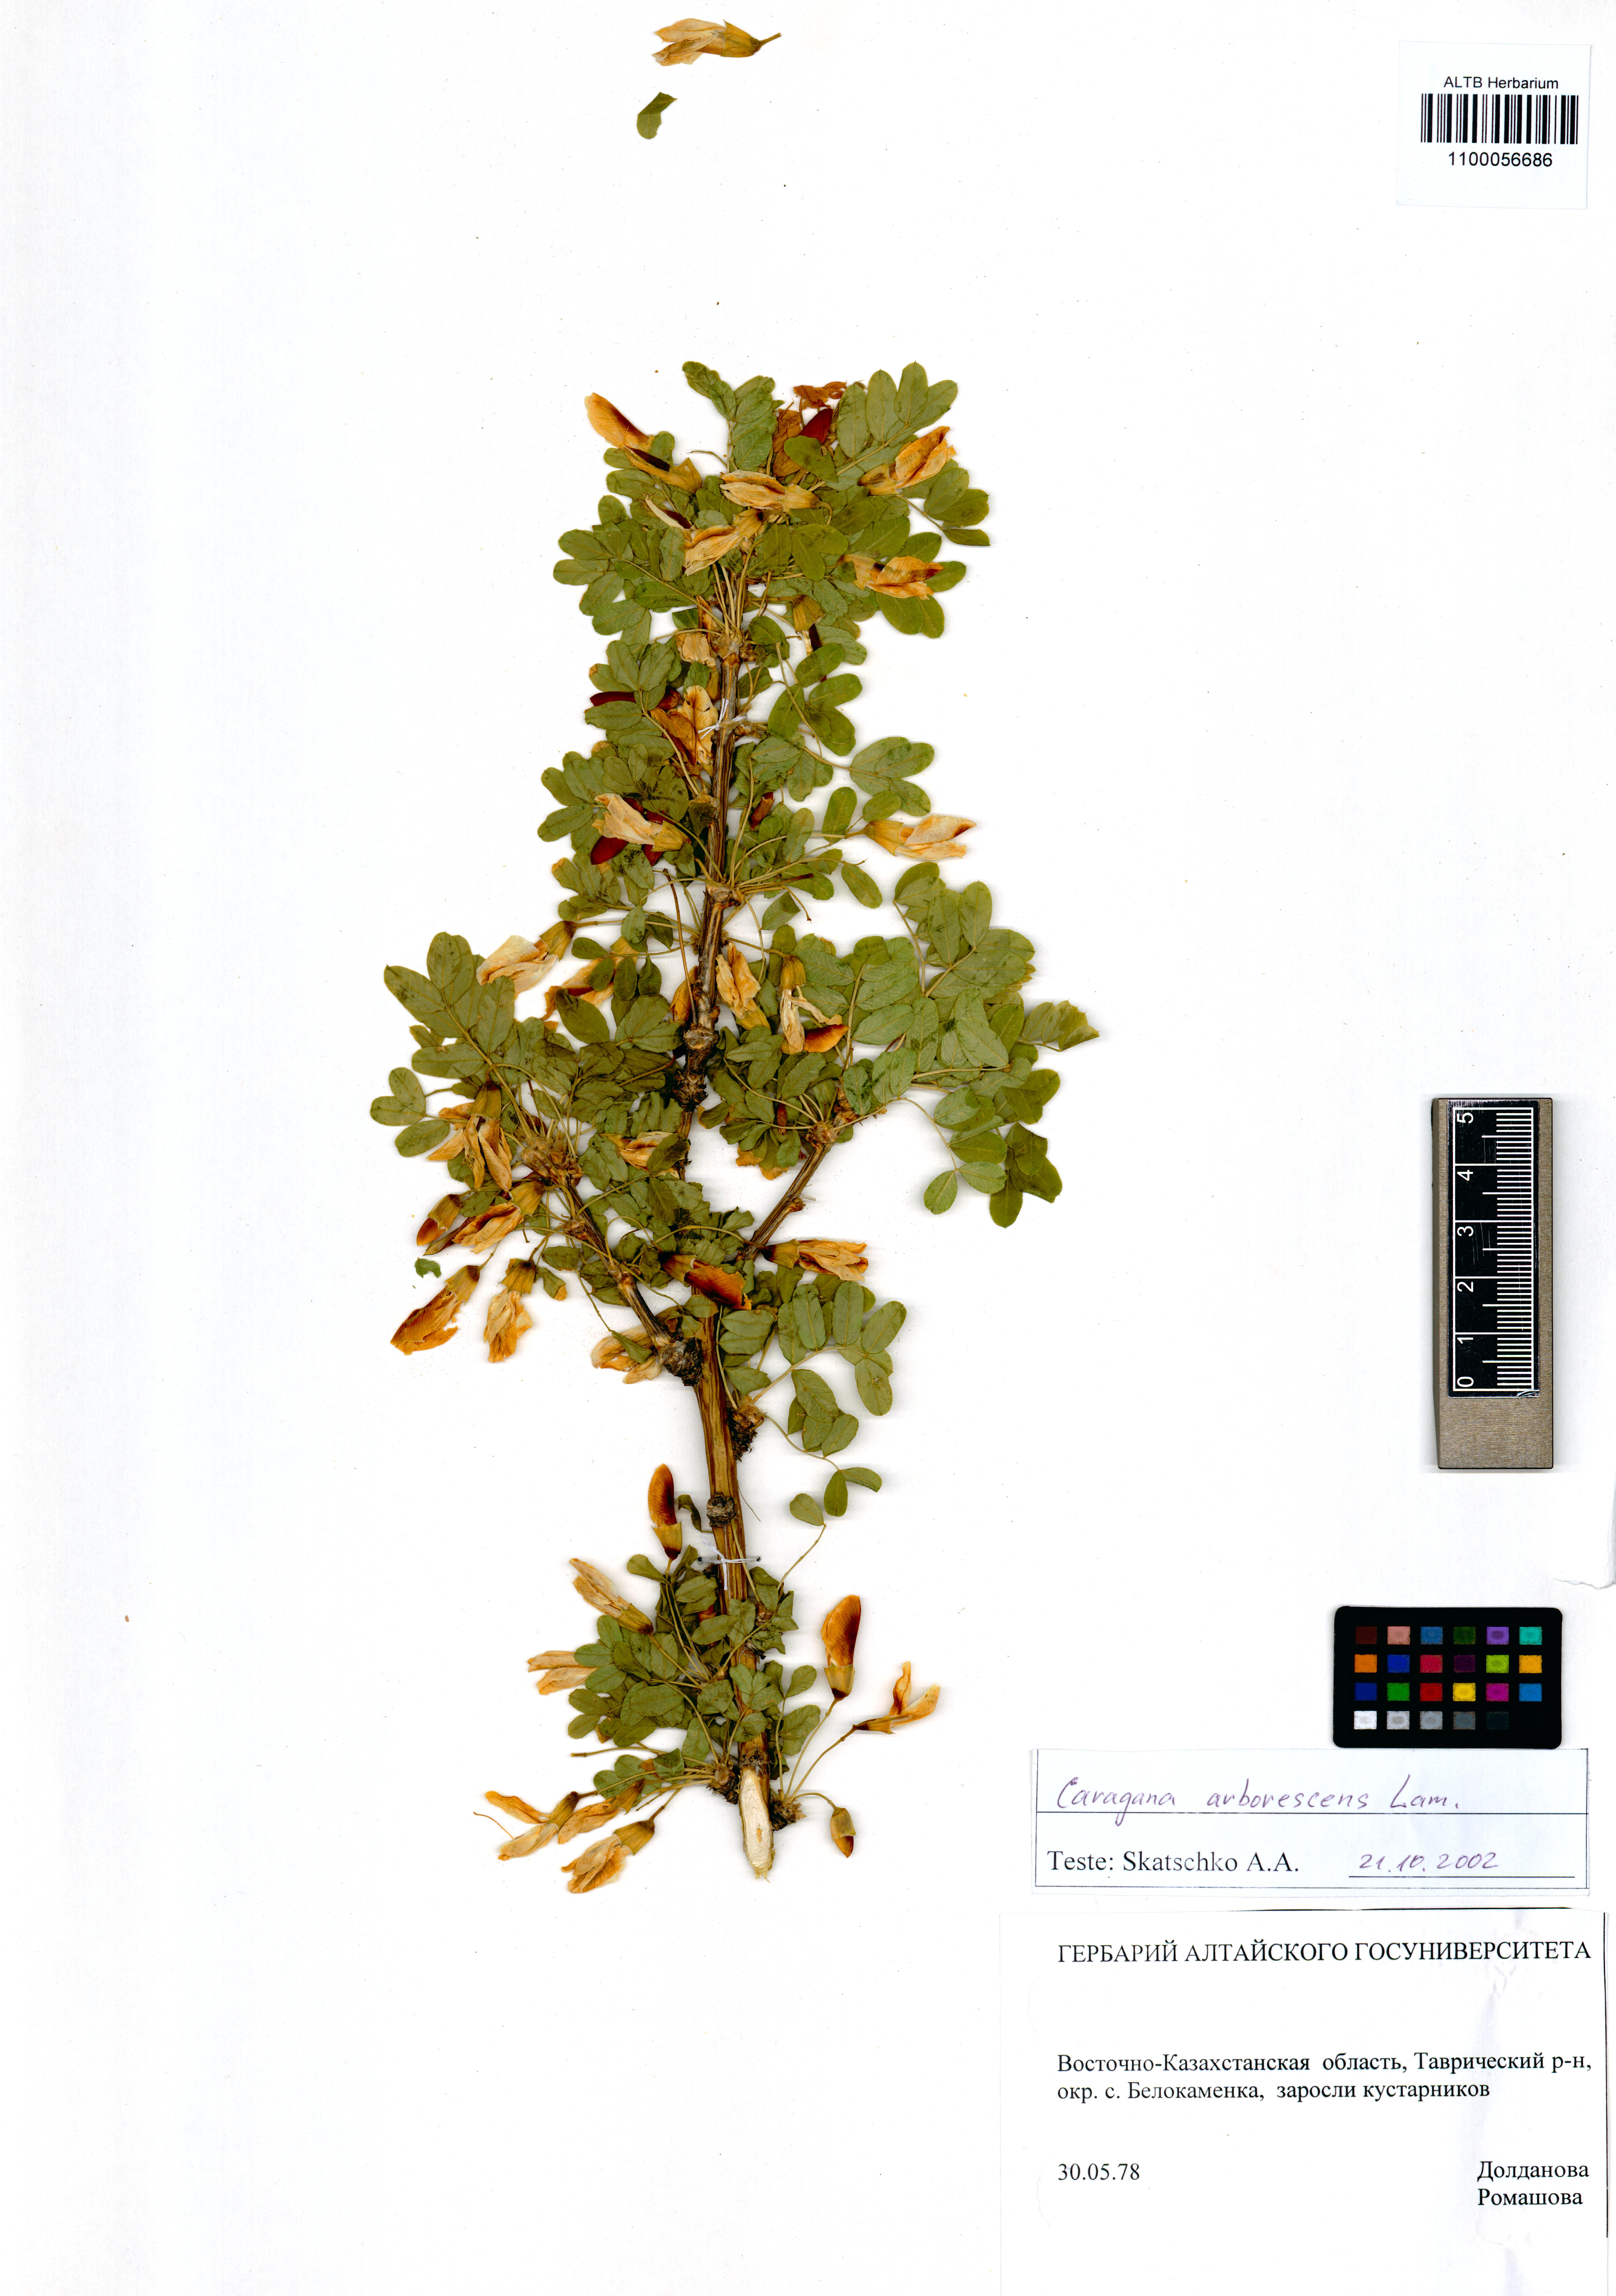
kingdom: Plantae
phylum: Tracheophyta
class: Magnoliopsida
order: Fabales
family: Fabaceae
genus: Caragana
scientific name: Caragana arborescens
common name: Siberian peashrub
